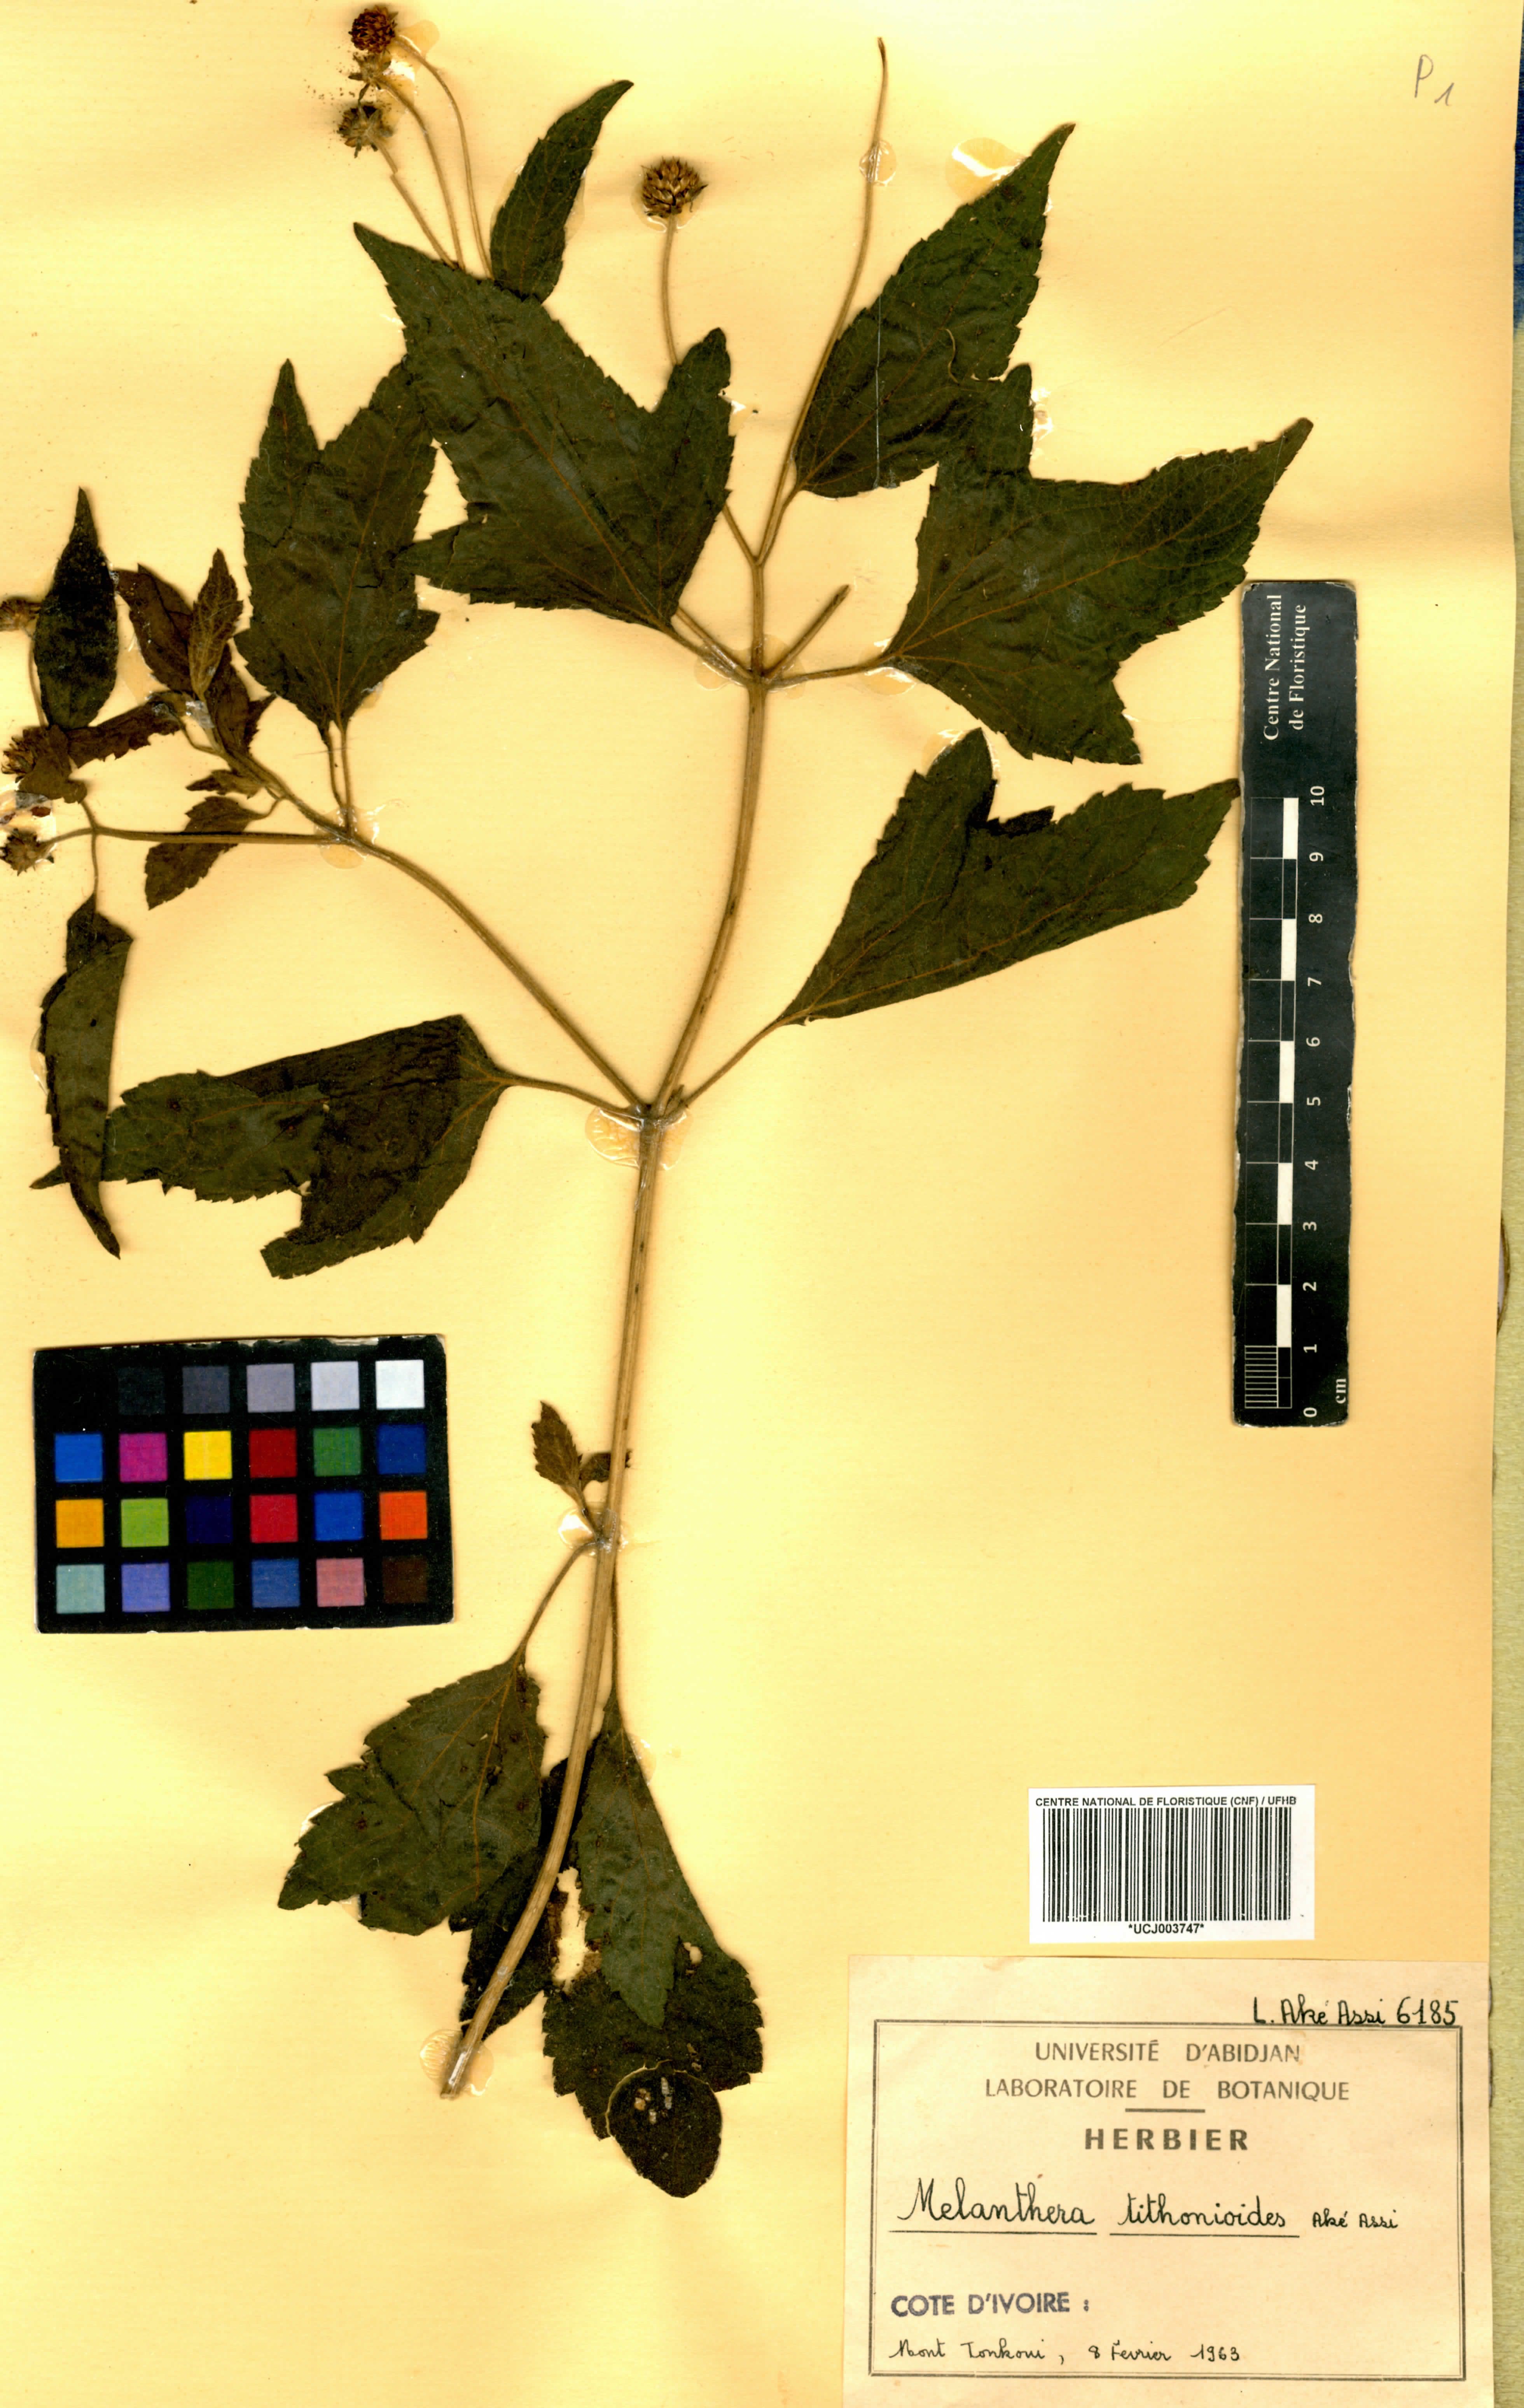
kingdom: Plantae
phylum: Tracheophyta
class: Magnoliopsida
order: Asterales
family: Asteraceae
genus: Lipotriche
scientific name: Lipotriche tithonioides
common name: Simandou daisy
